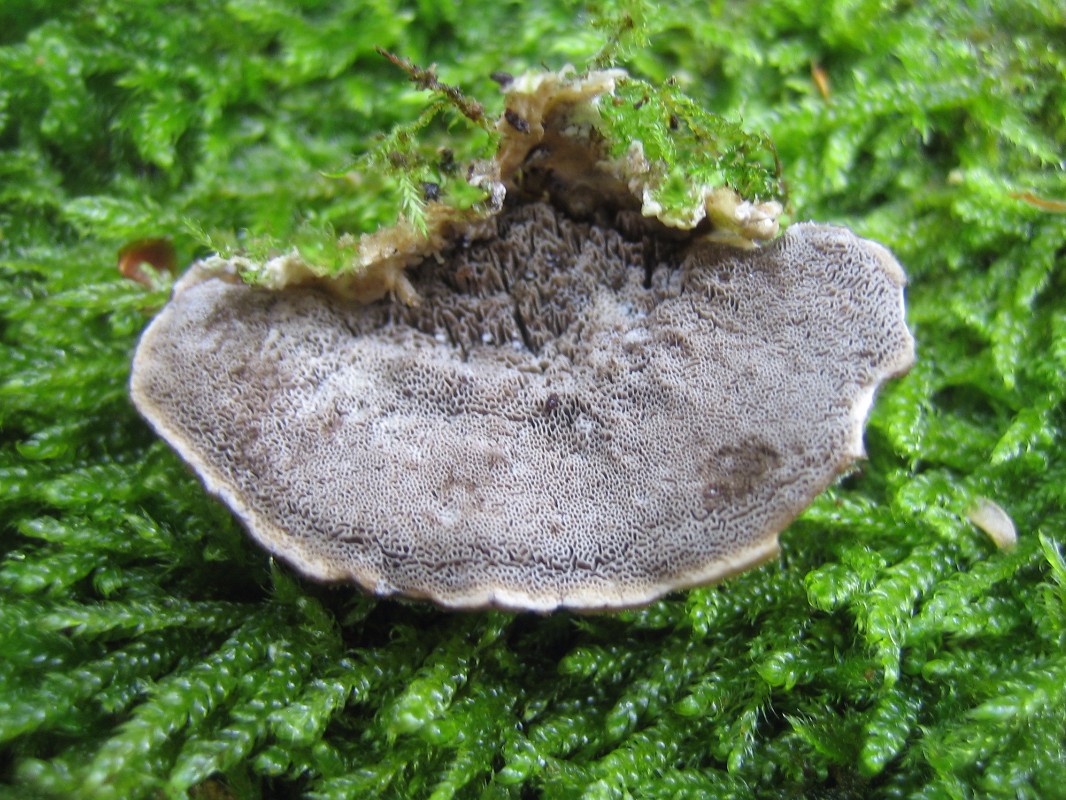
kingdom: Fungi
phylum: Basidiomycota
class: Agaricomycetes
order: Polyporales
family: Phanerochaetaceae
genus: Bjerkandera
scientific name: Bjerkandera adusta
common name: sveden sodporesvamp
